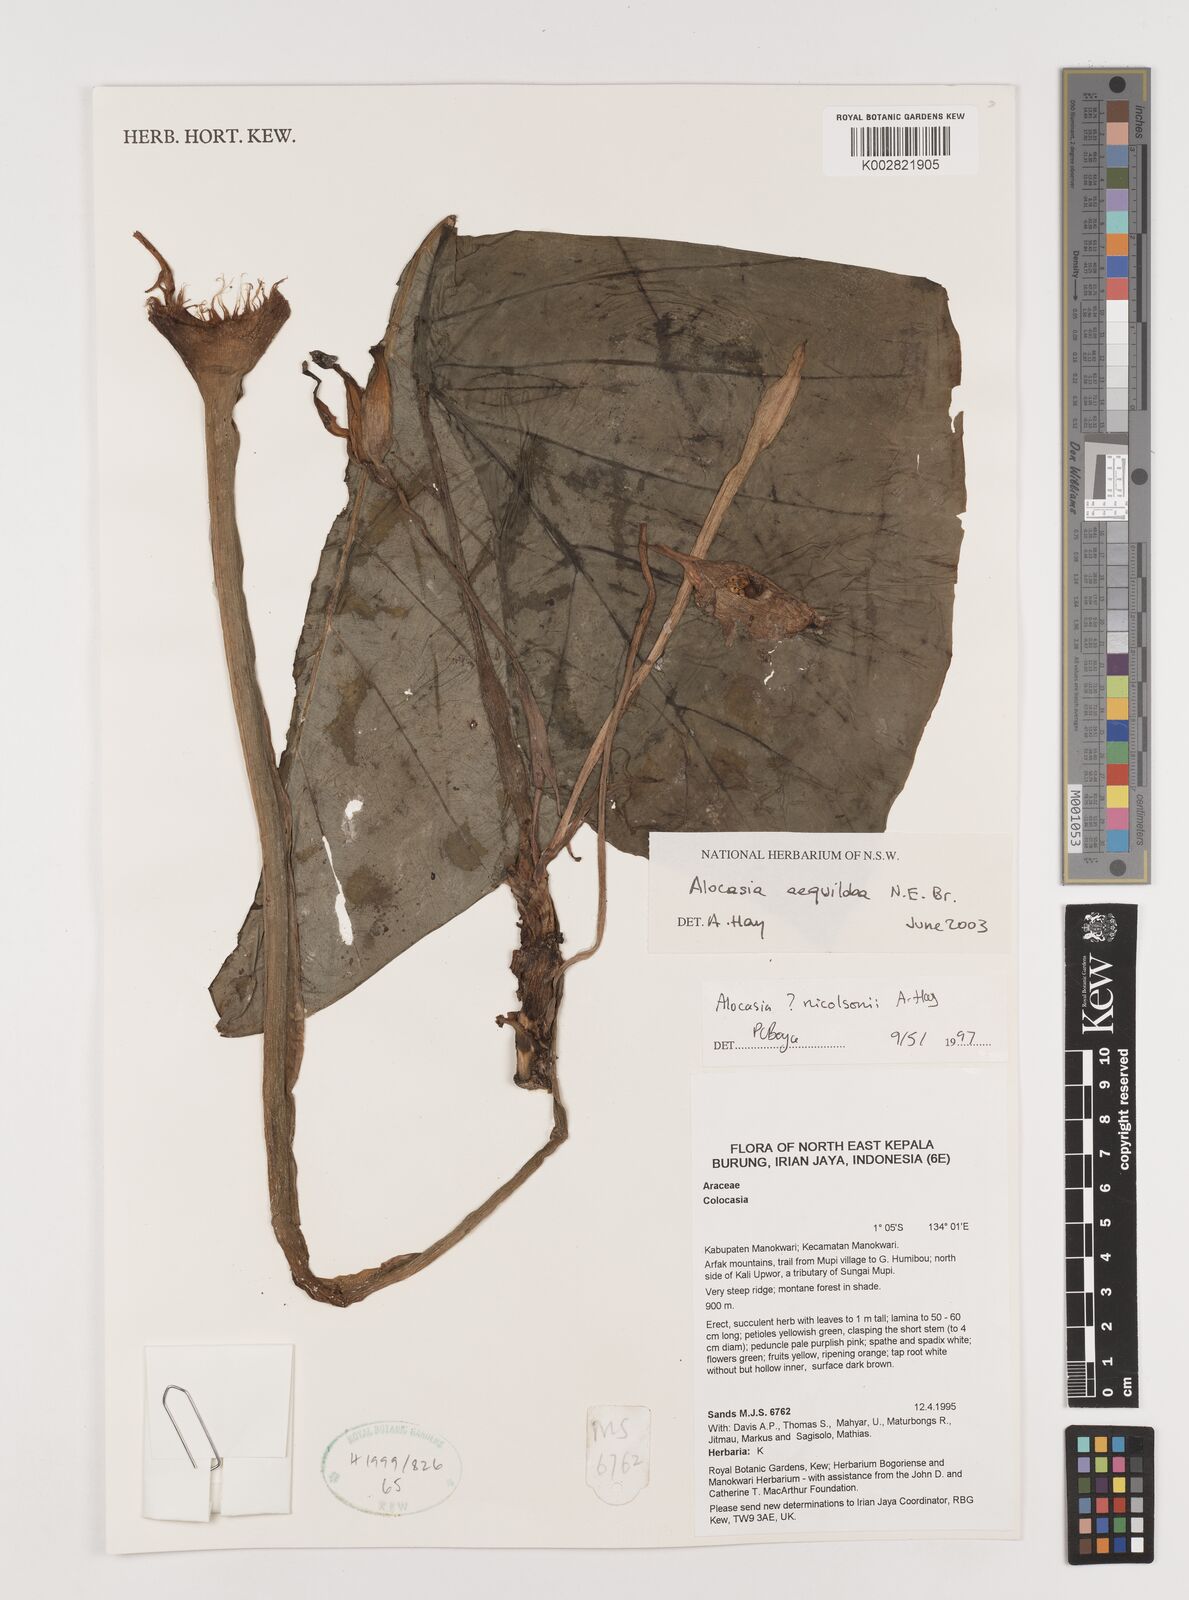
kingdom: Plantae
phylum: Tracheophyta
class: Liliopsida
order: Alismatales
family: Araceae
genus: Alocasia
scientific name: Alocasia aequiloba
